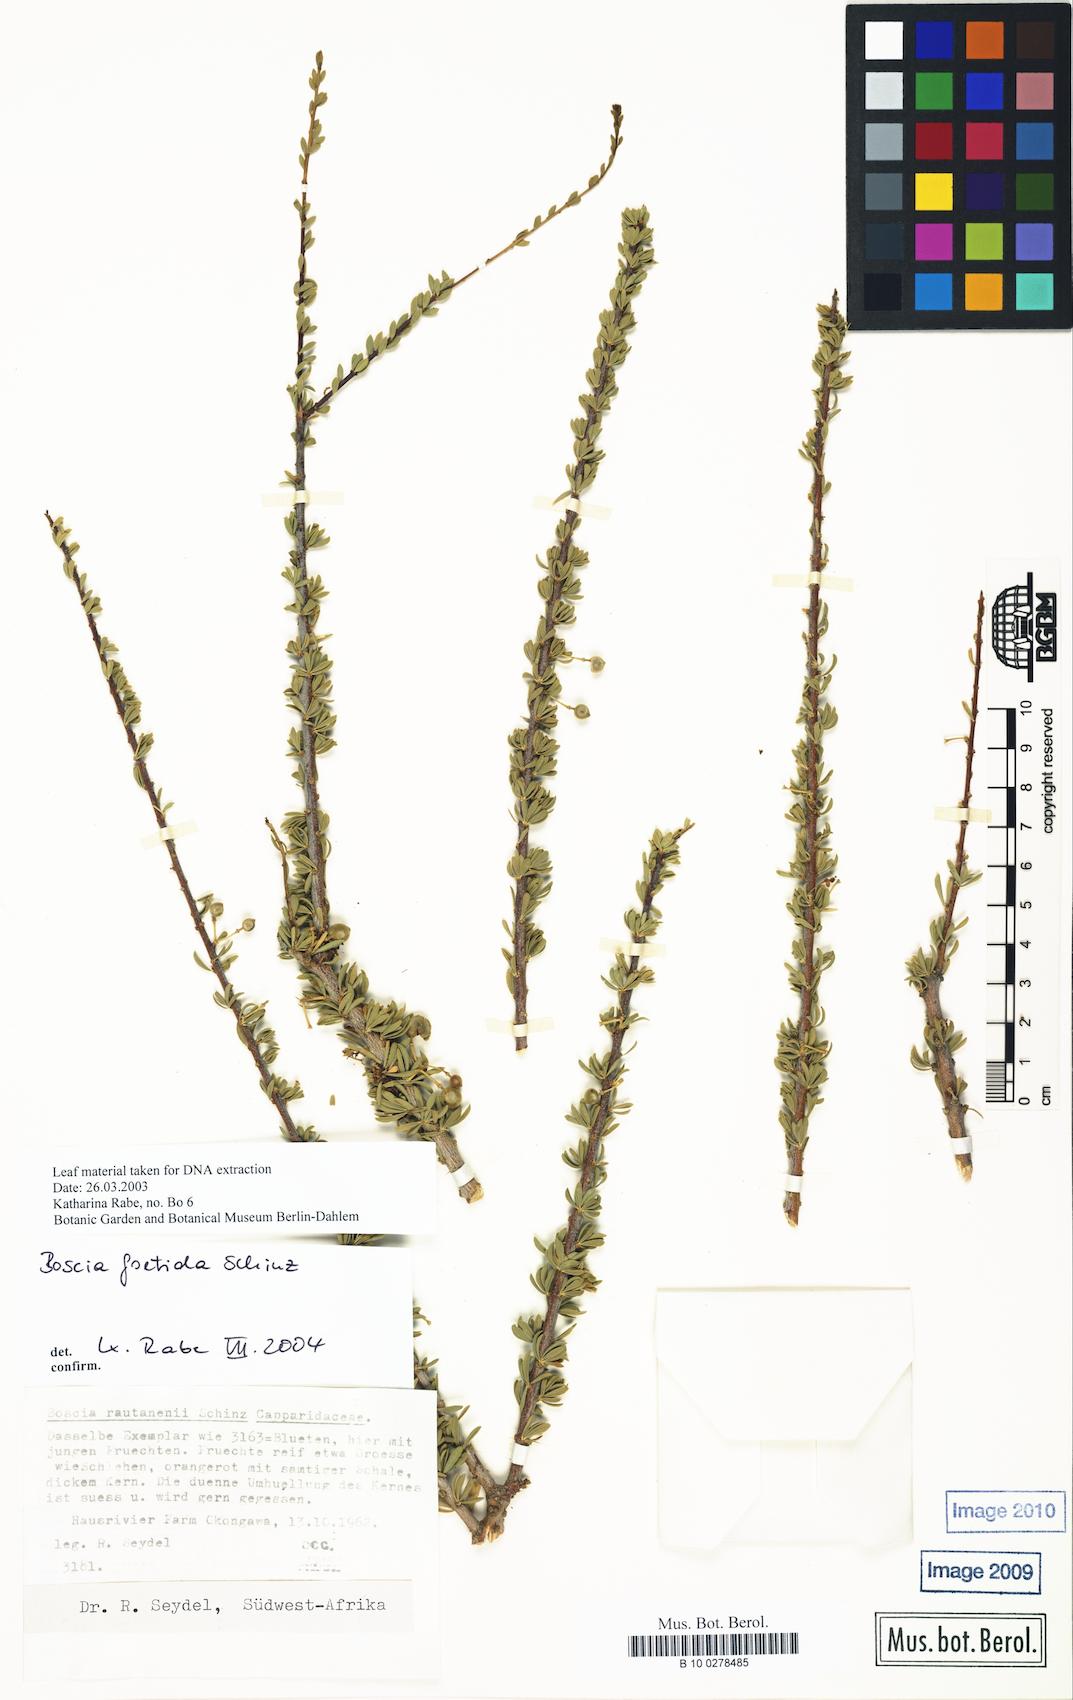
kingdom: Plantae
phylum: Tracheophyta
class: Magnoliopsida
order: Brassicales
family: Capparaceae
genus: Boscia
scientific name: Boscia foetida
